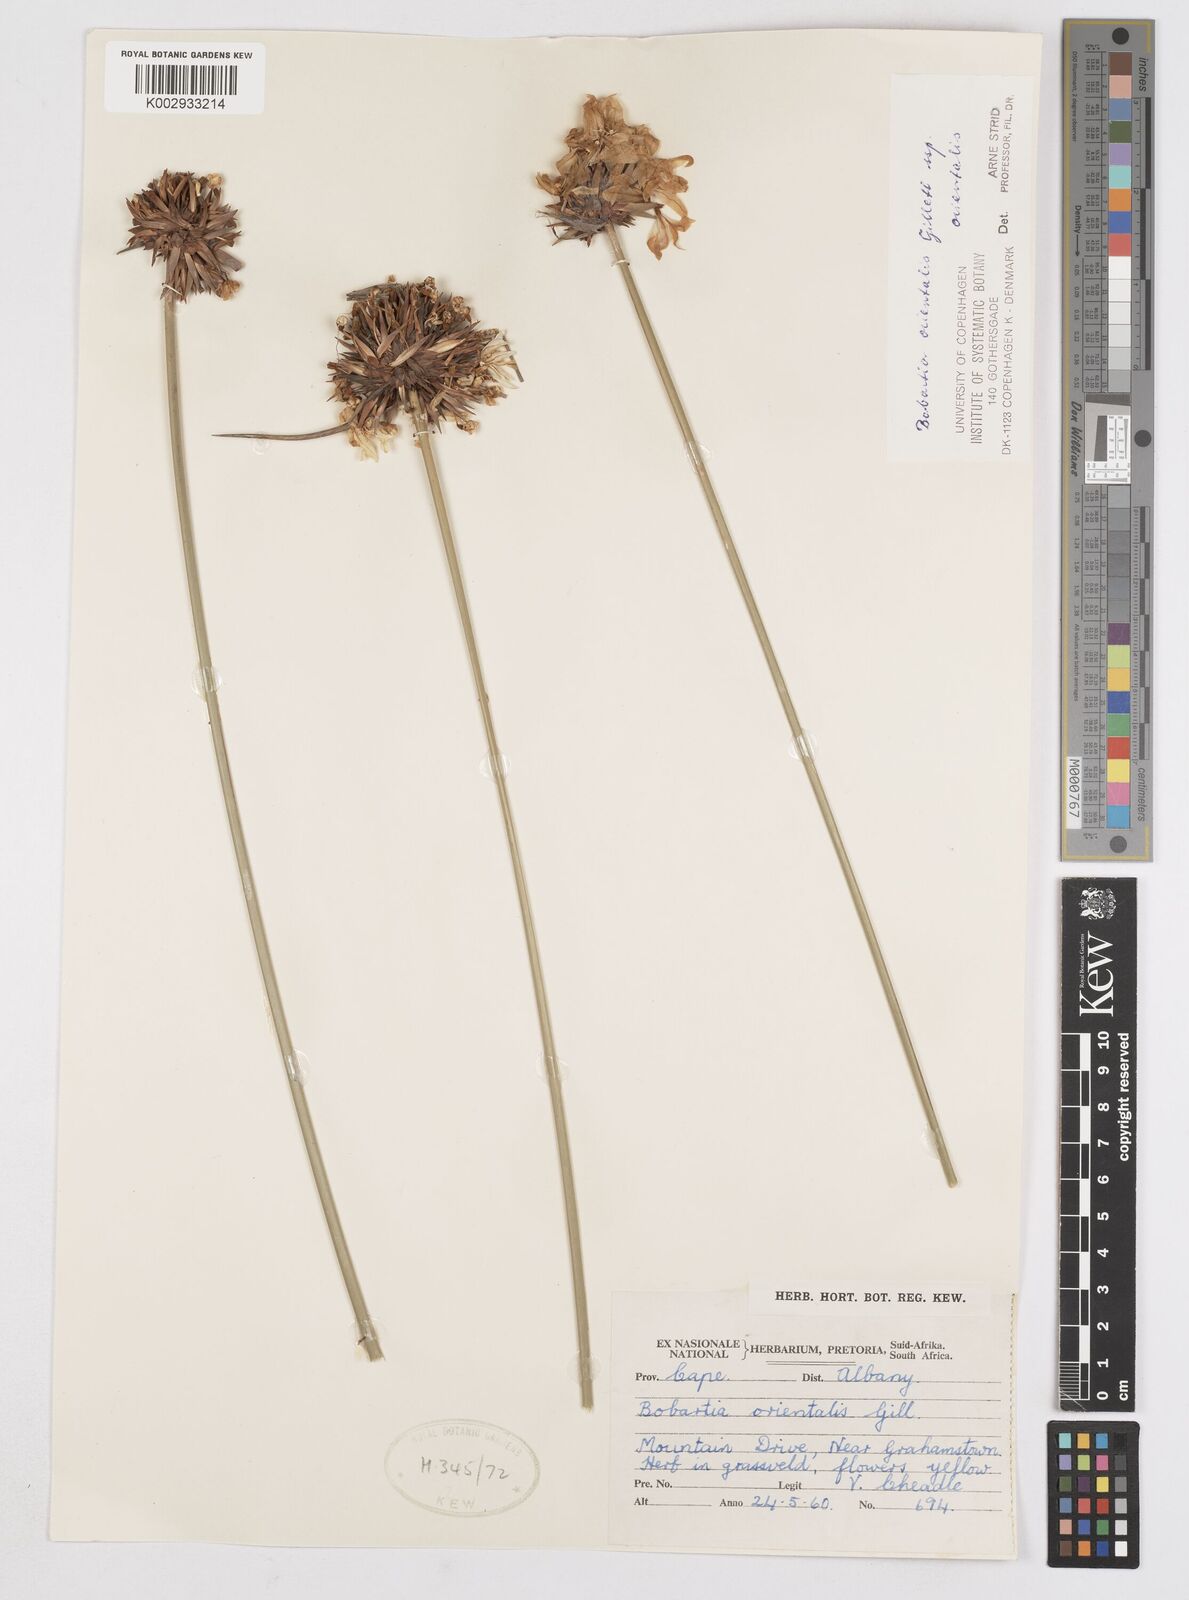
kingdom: Plantae
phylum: Tracheophyta
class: Liliopsida
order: Asparagales
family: Iridaceae
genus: Bobartia
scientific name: Bobartia orientalis
